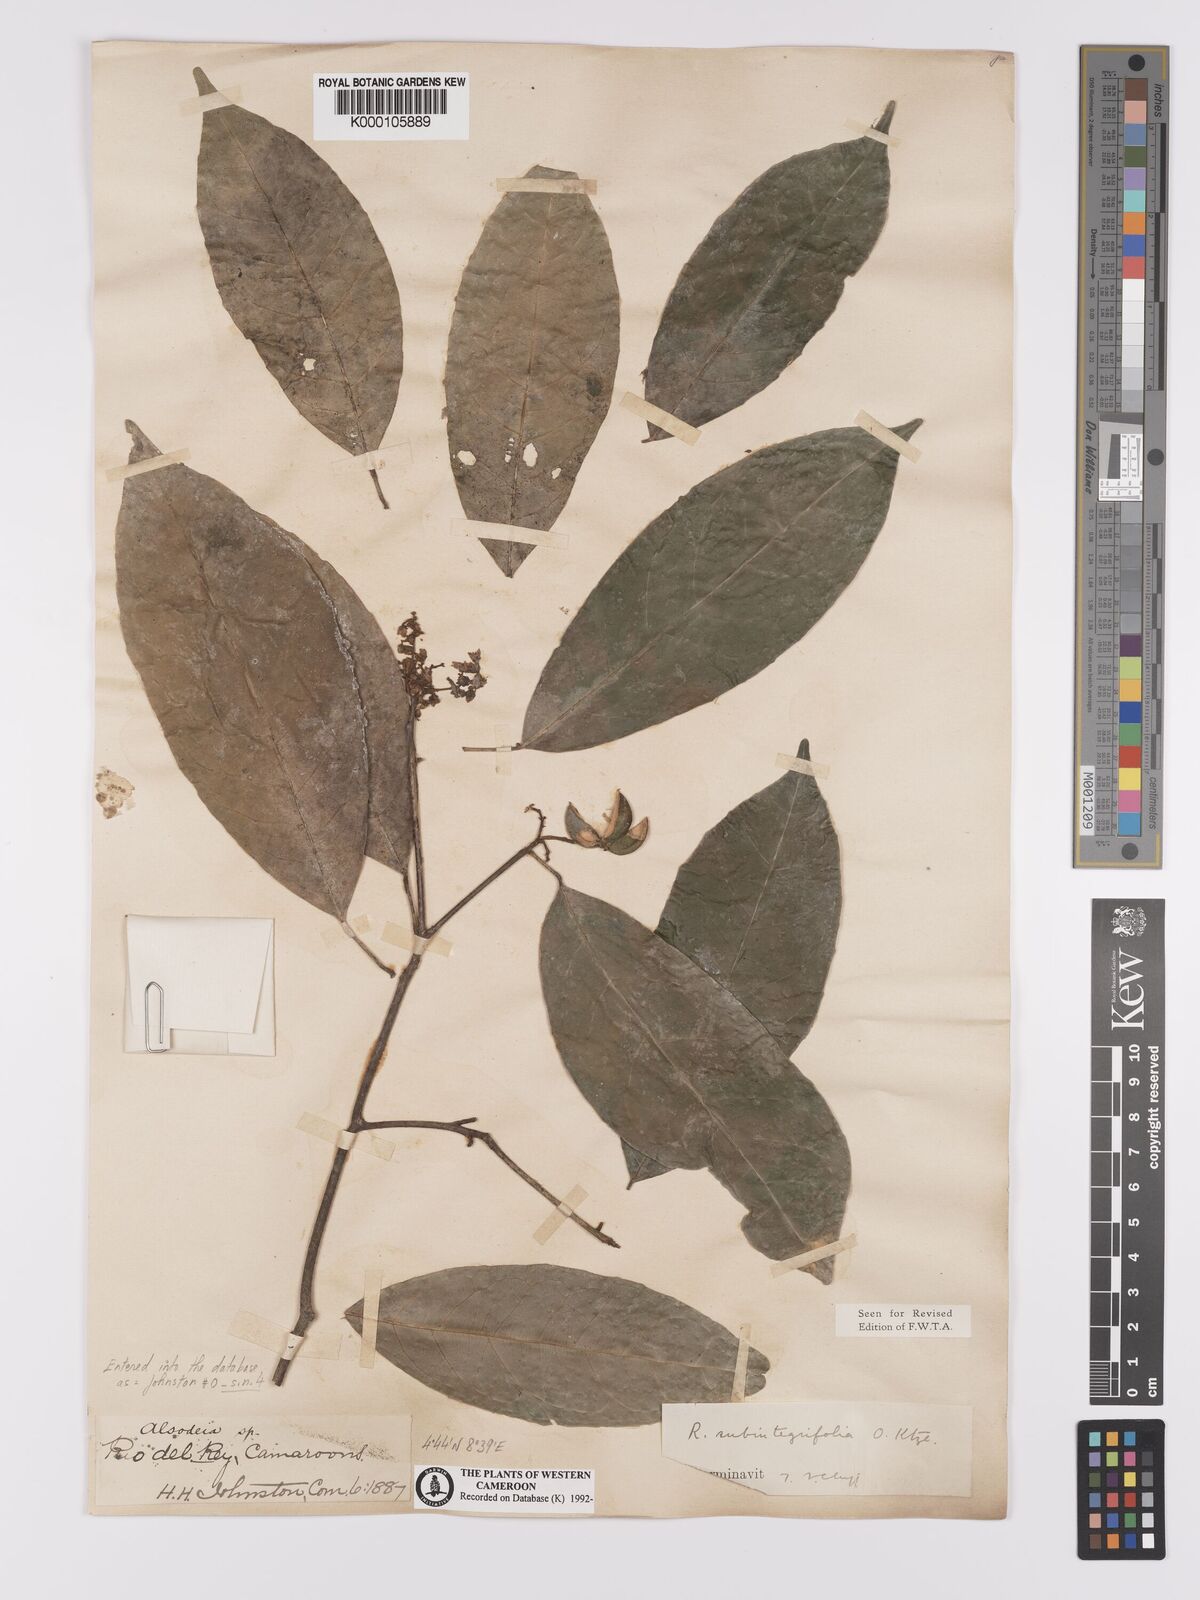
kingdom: Plantae
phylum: Tracheophyta
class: Magnoliopsida
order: Malpighiales
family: Violaceae
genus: Rinorea
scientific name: Rinorea subintegrifolia
